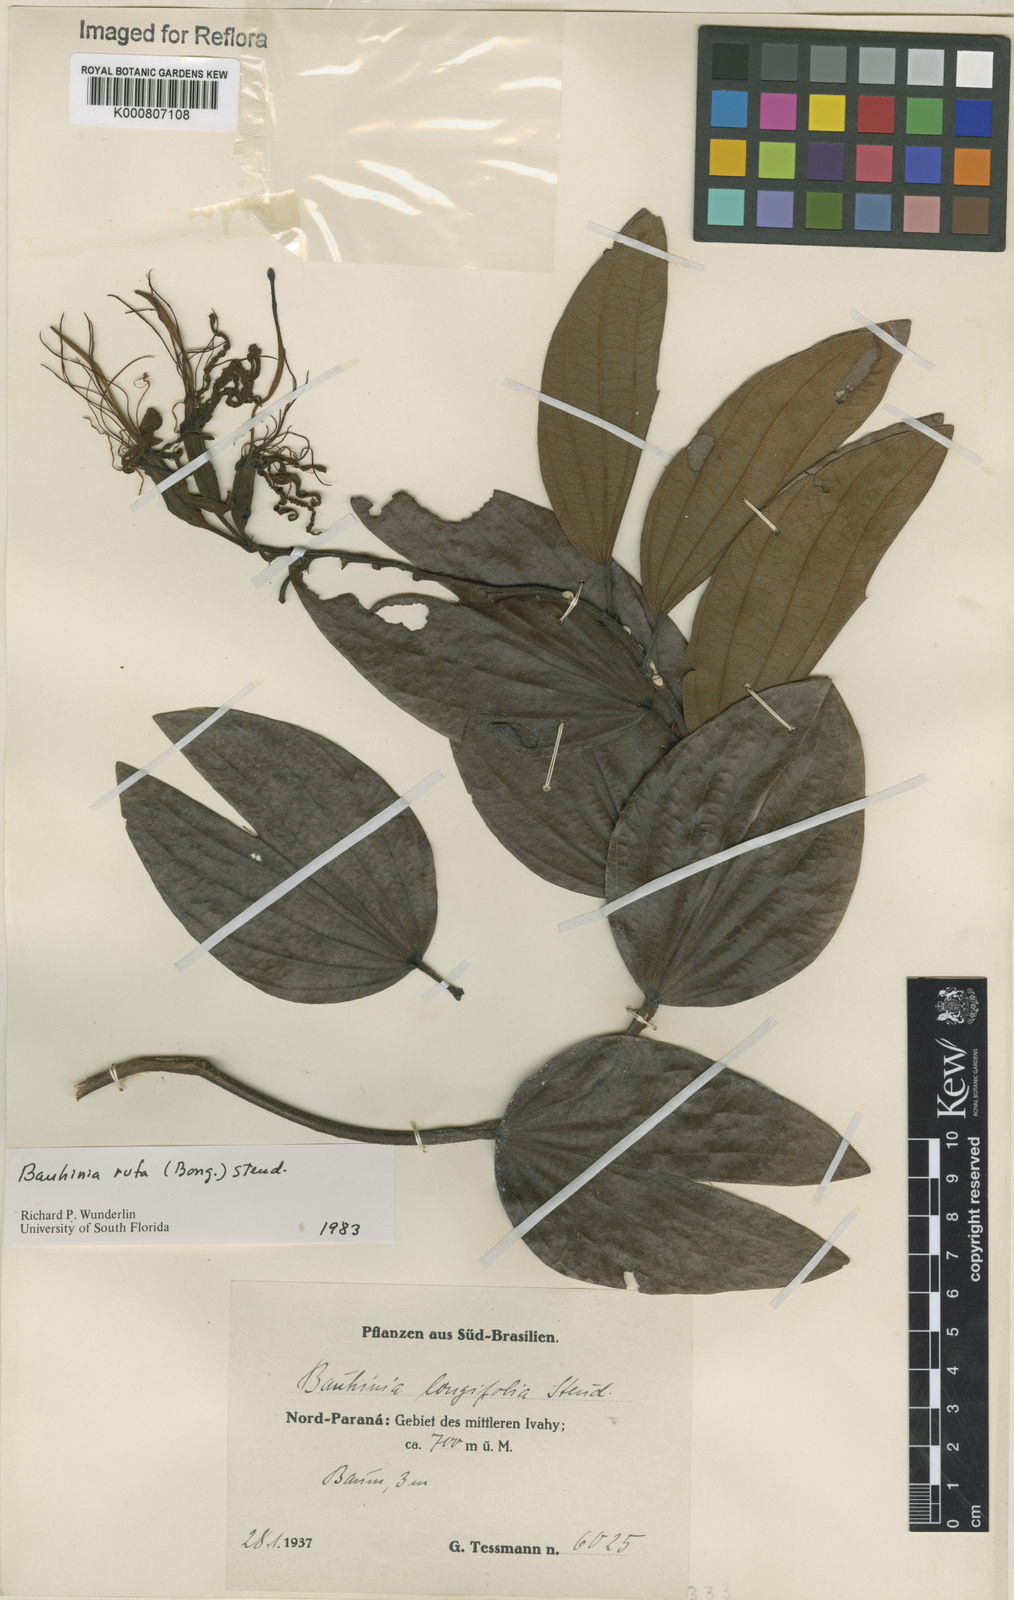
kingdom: Plantae
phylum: Tracheophyta
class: Magnoliopsida
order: Fabales
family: Fabaceae
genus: Bauhinia
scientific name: Bauhinia rufa
